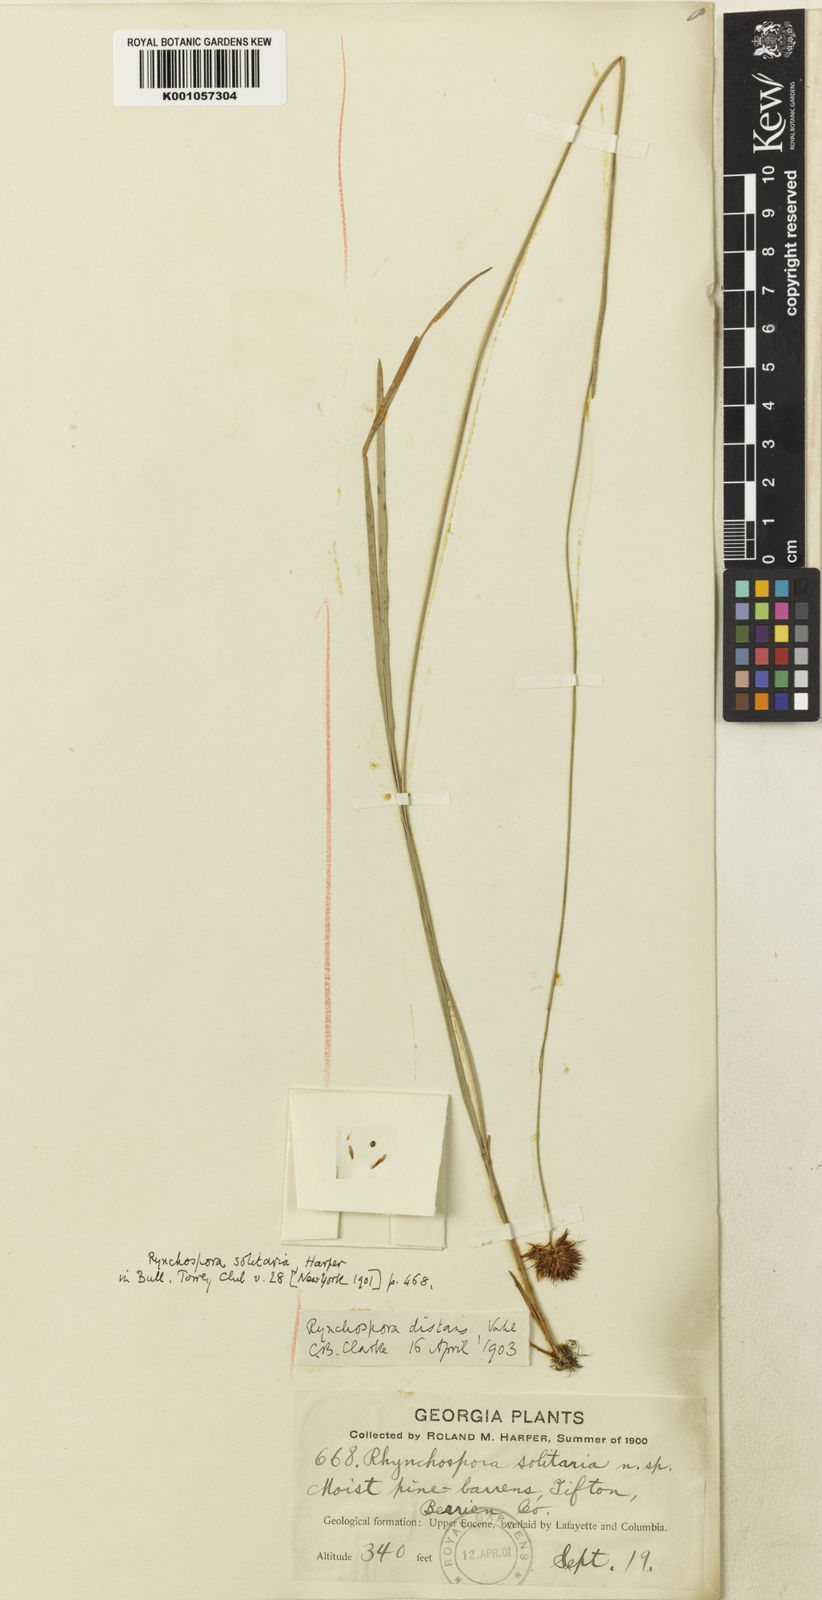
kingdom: Plantae
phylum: Tracheophyta
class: Liliopsida
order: Poales
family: Cyperaceae
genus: Rhynchospora
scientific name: Rhynchospora fascicularis
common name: Fascicled beak sedge
